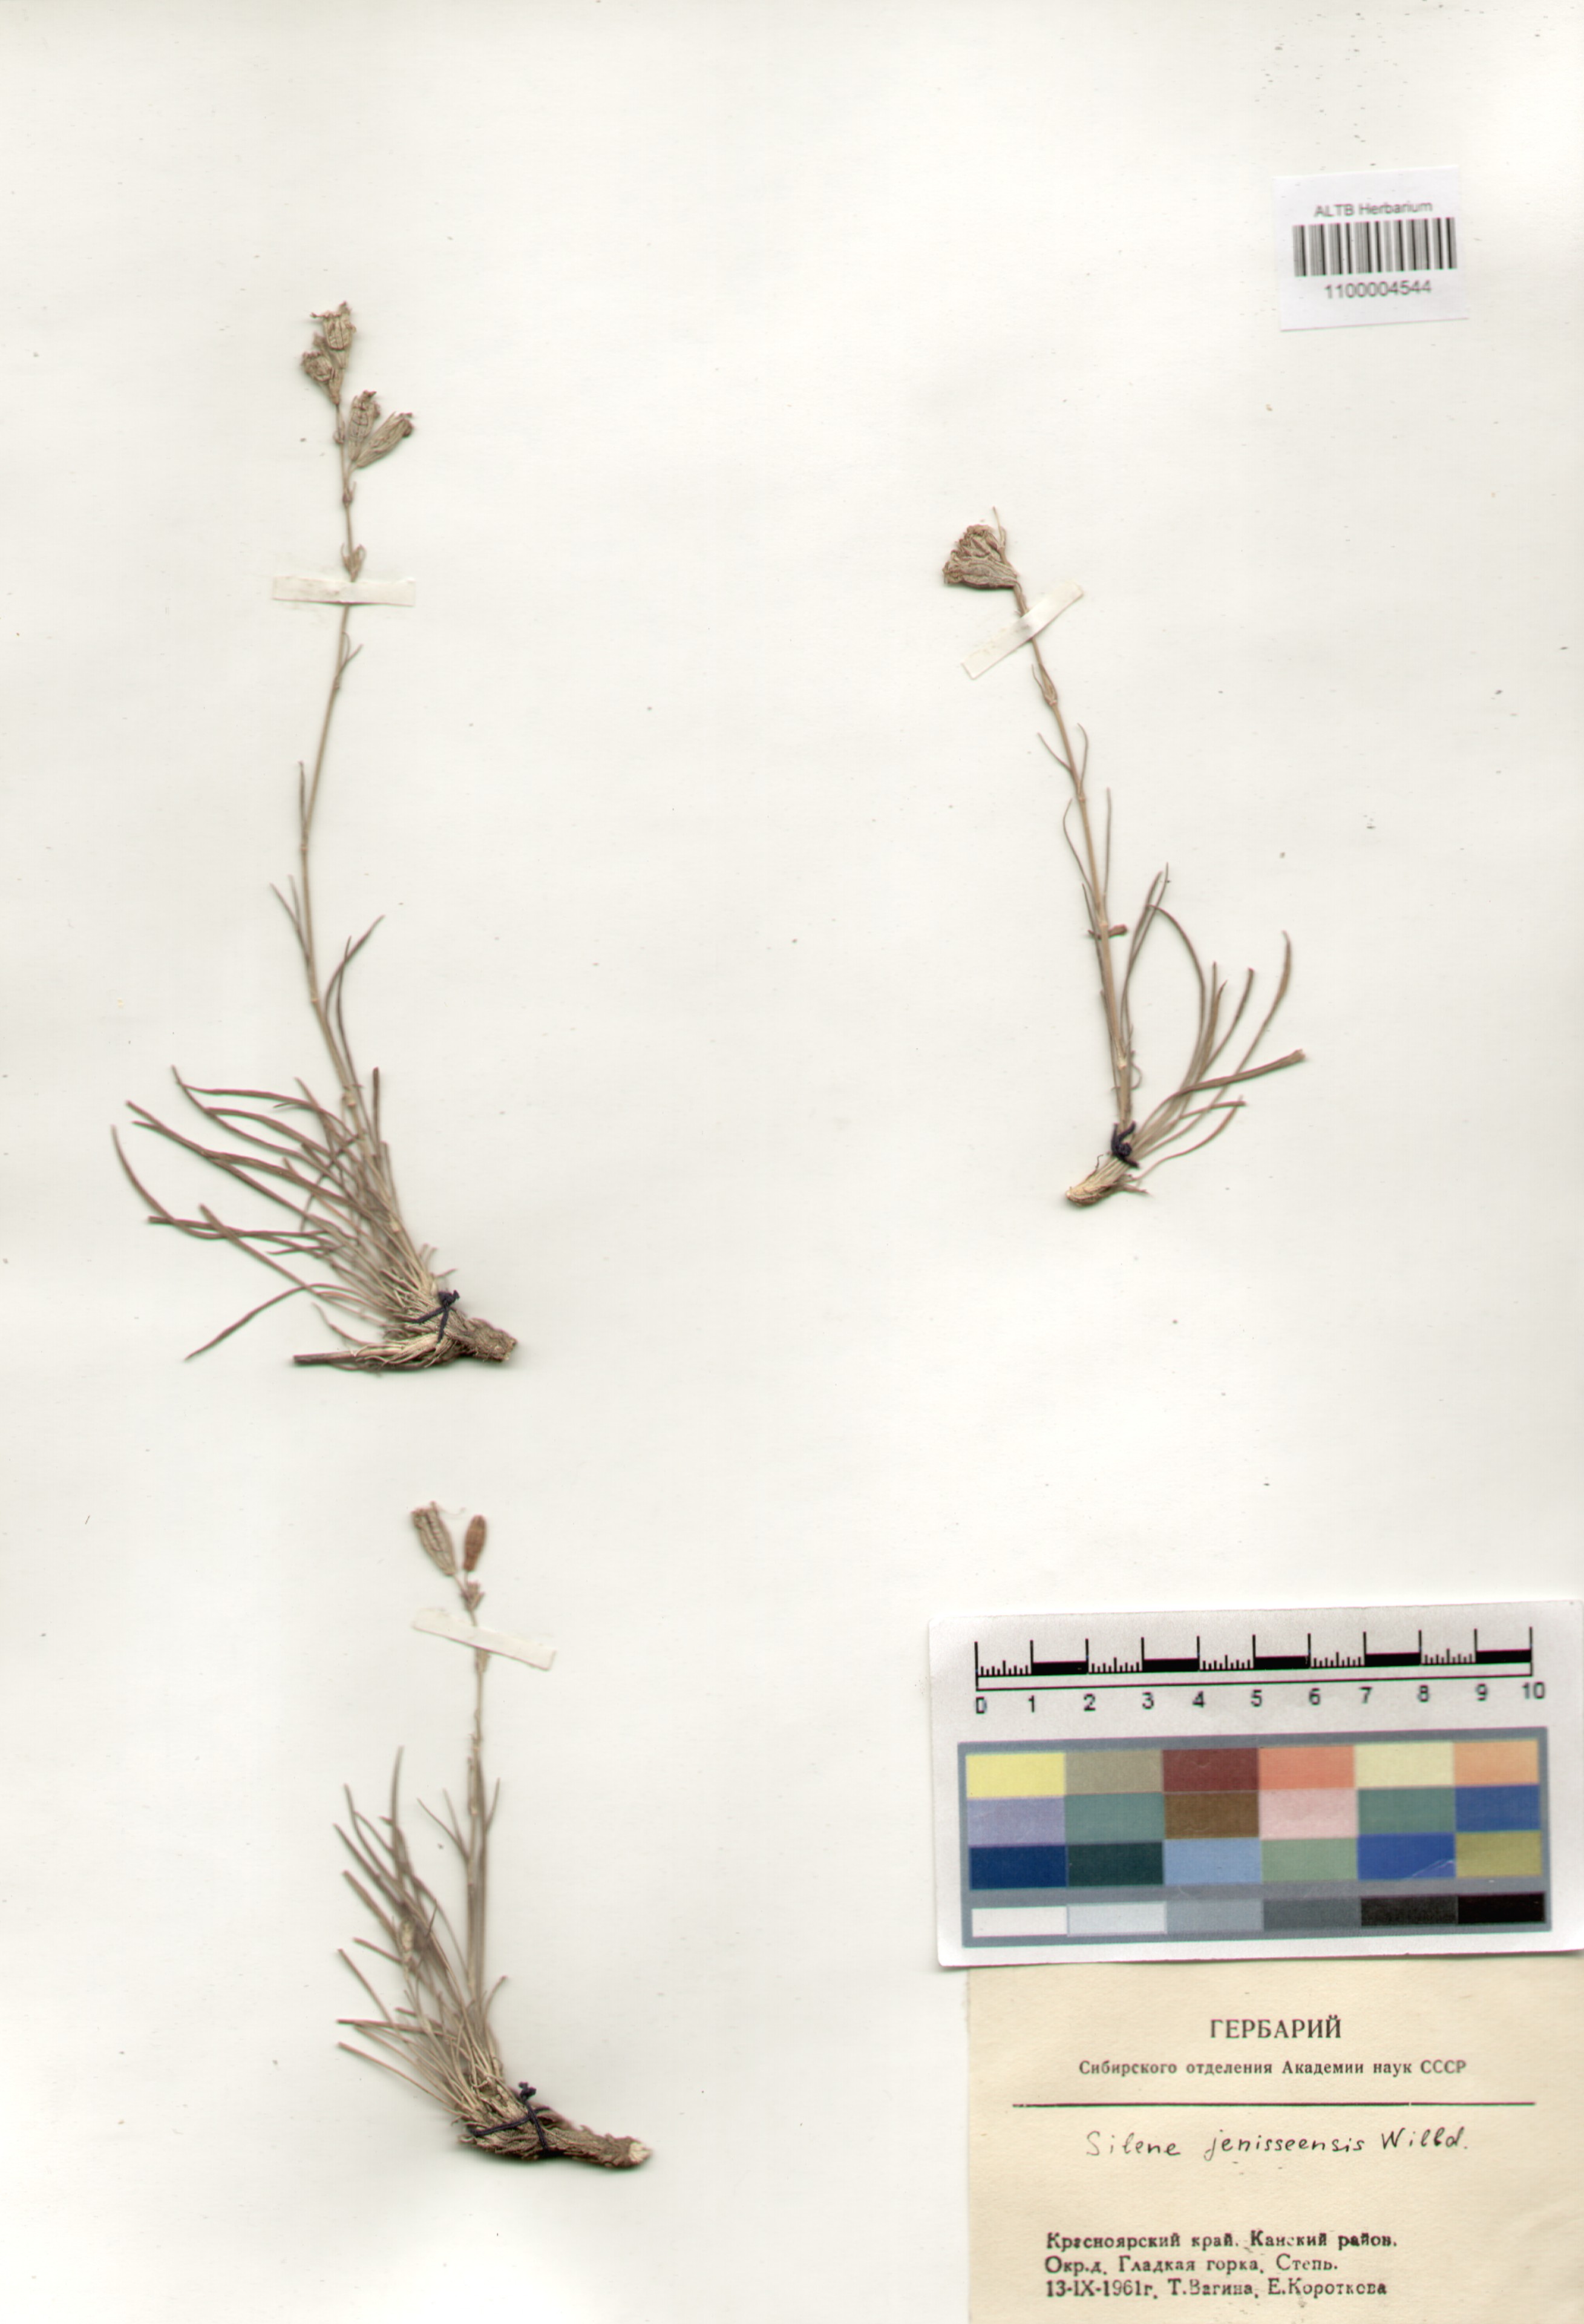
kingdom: Plantae
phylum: Tracheophyta
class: Magnoliopsida
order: Caryophyllales
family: Caryophyllaceae
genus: Silene
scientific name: Silene jeniseensis
